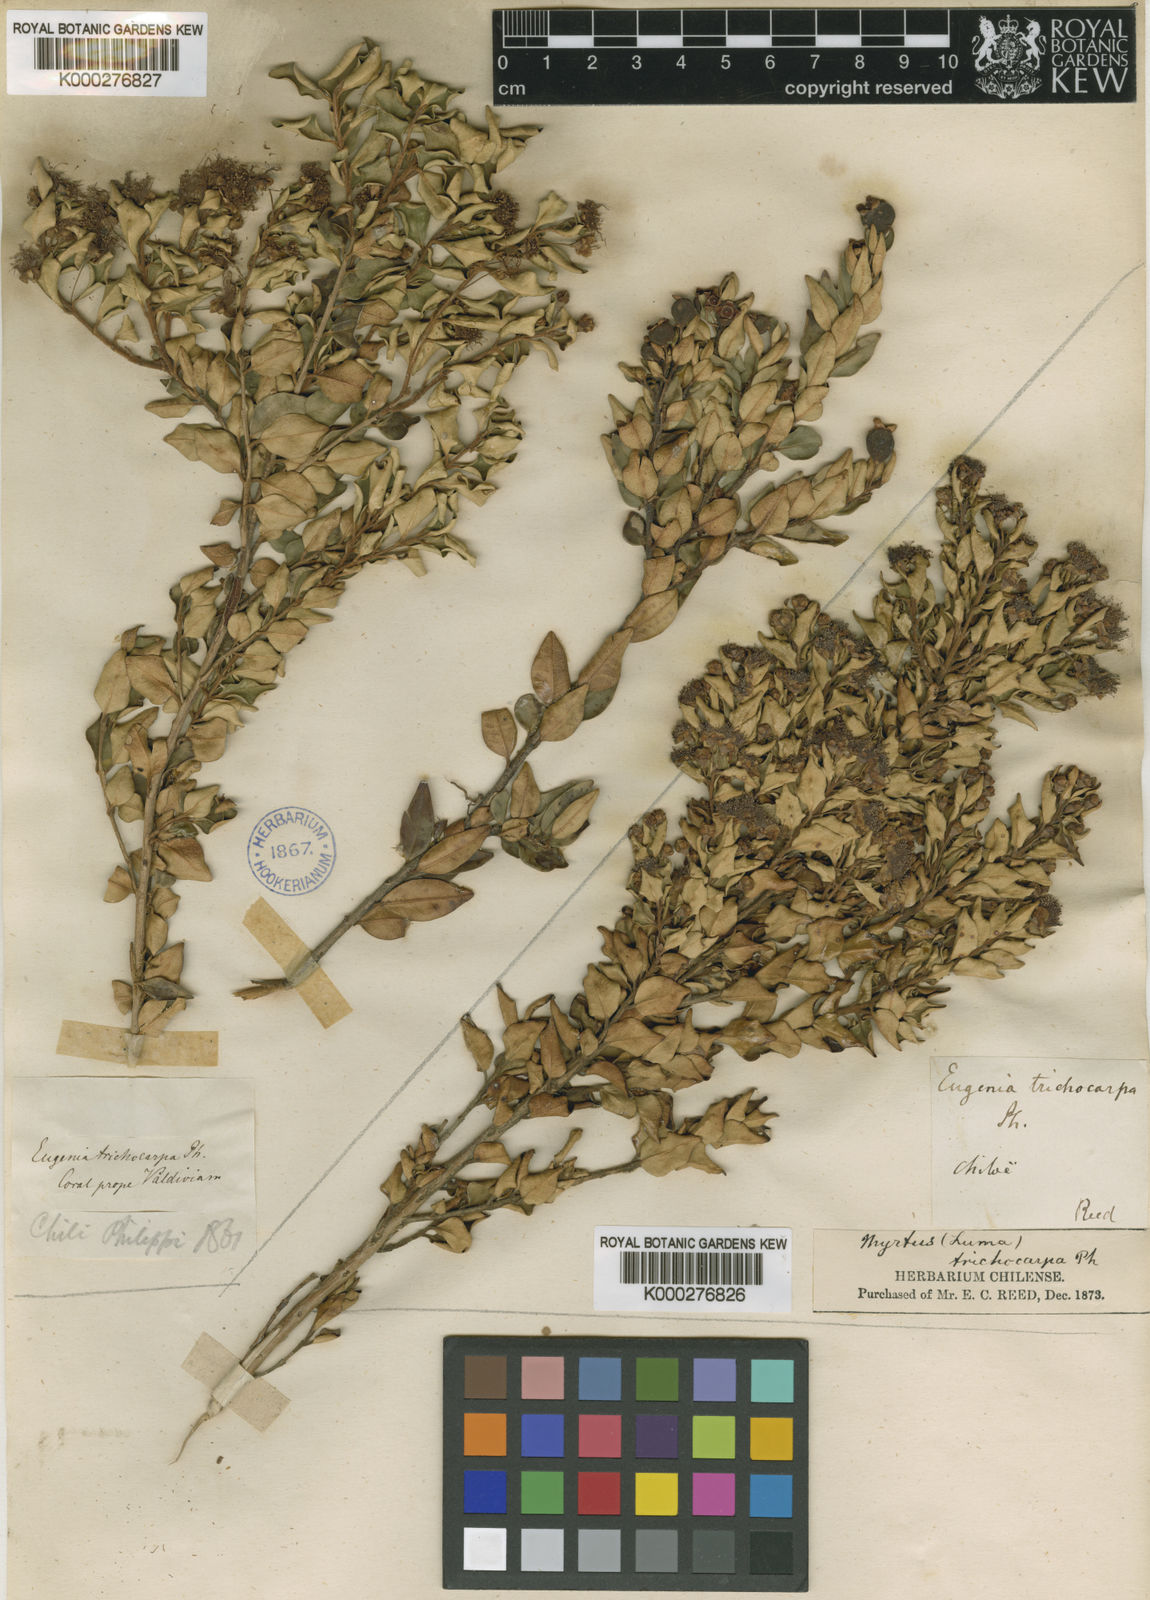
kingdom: Plantae
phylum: Tracheophyta
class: Magnoliopsida
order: Myrtales
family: Myrtaceae
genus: Myrceugenia
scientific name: Myrceugenia ovata
